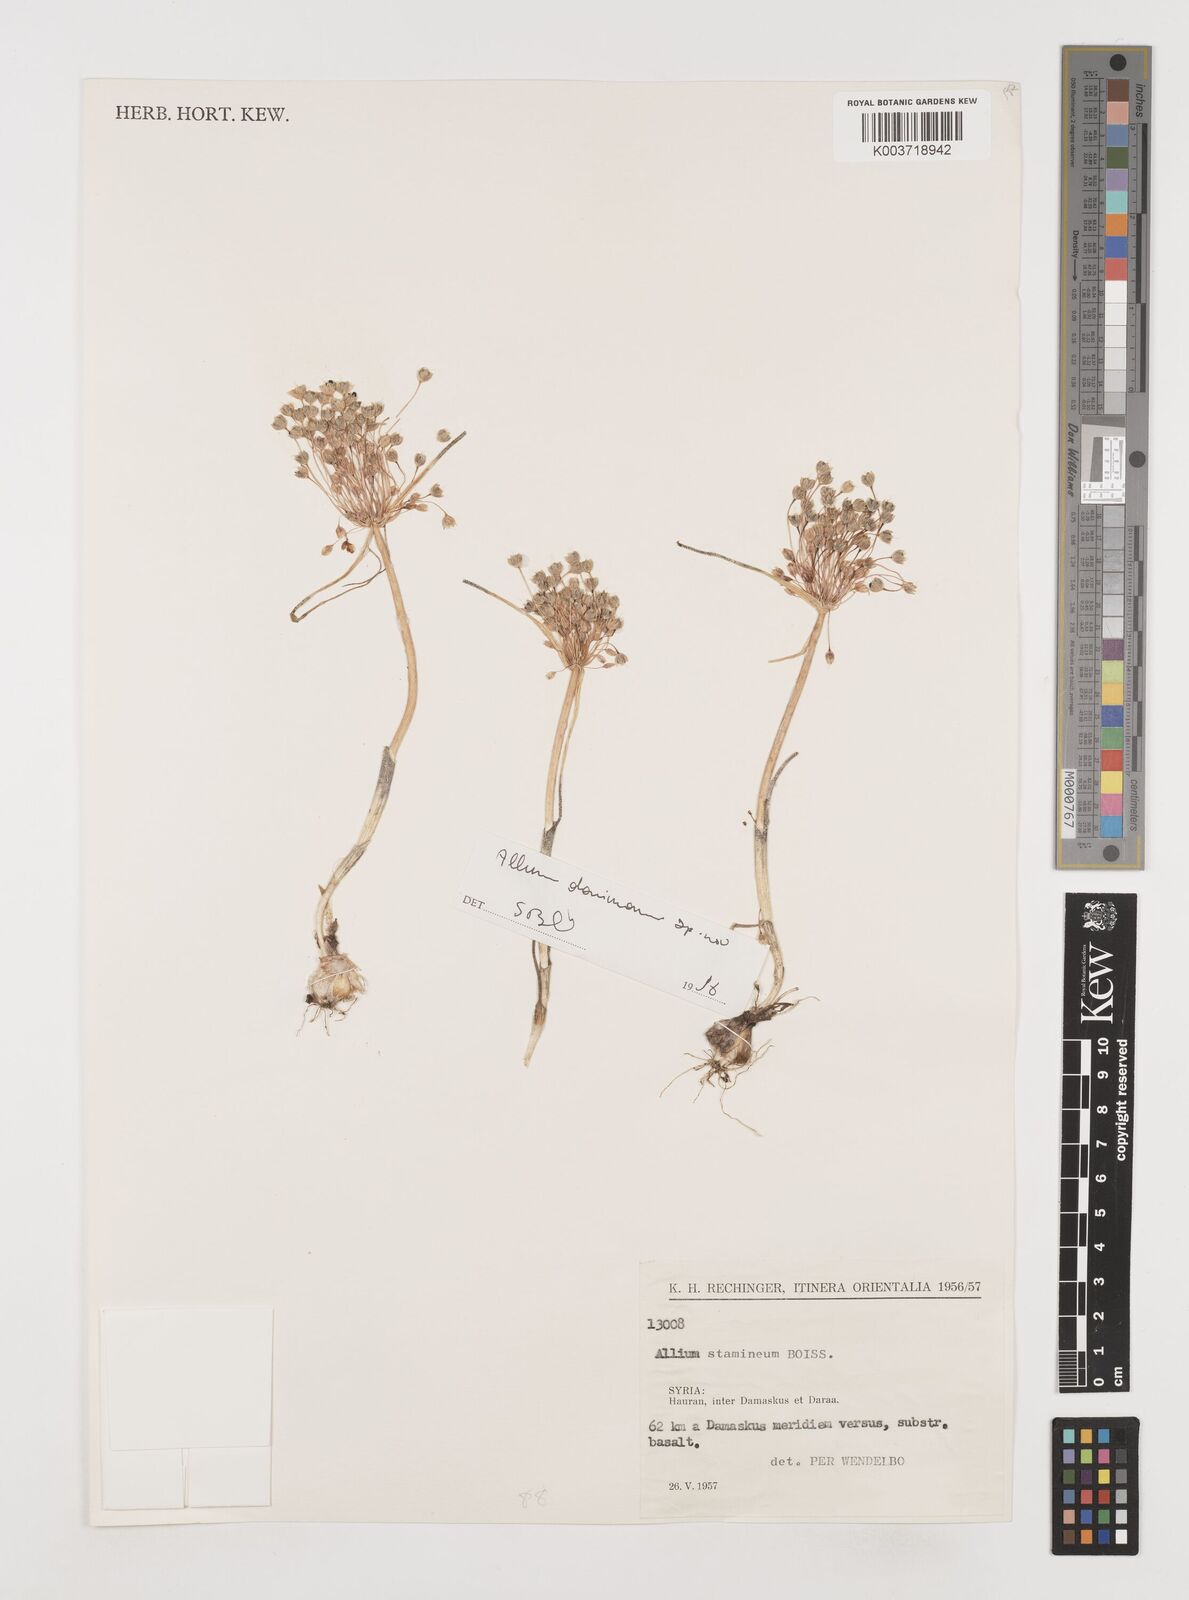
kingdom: Plantae
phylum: Tracheophyta
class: Liliopsida
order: Asparagales
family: Amaryllidaceae
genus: Allium
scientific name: Allium stamineum
